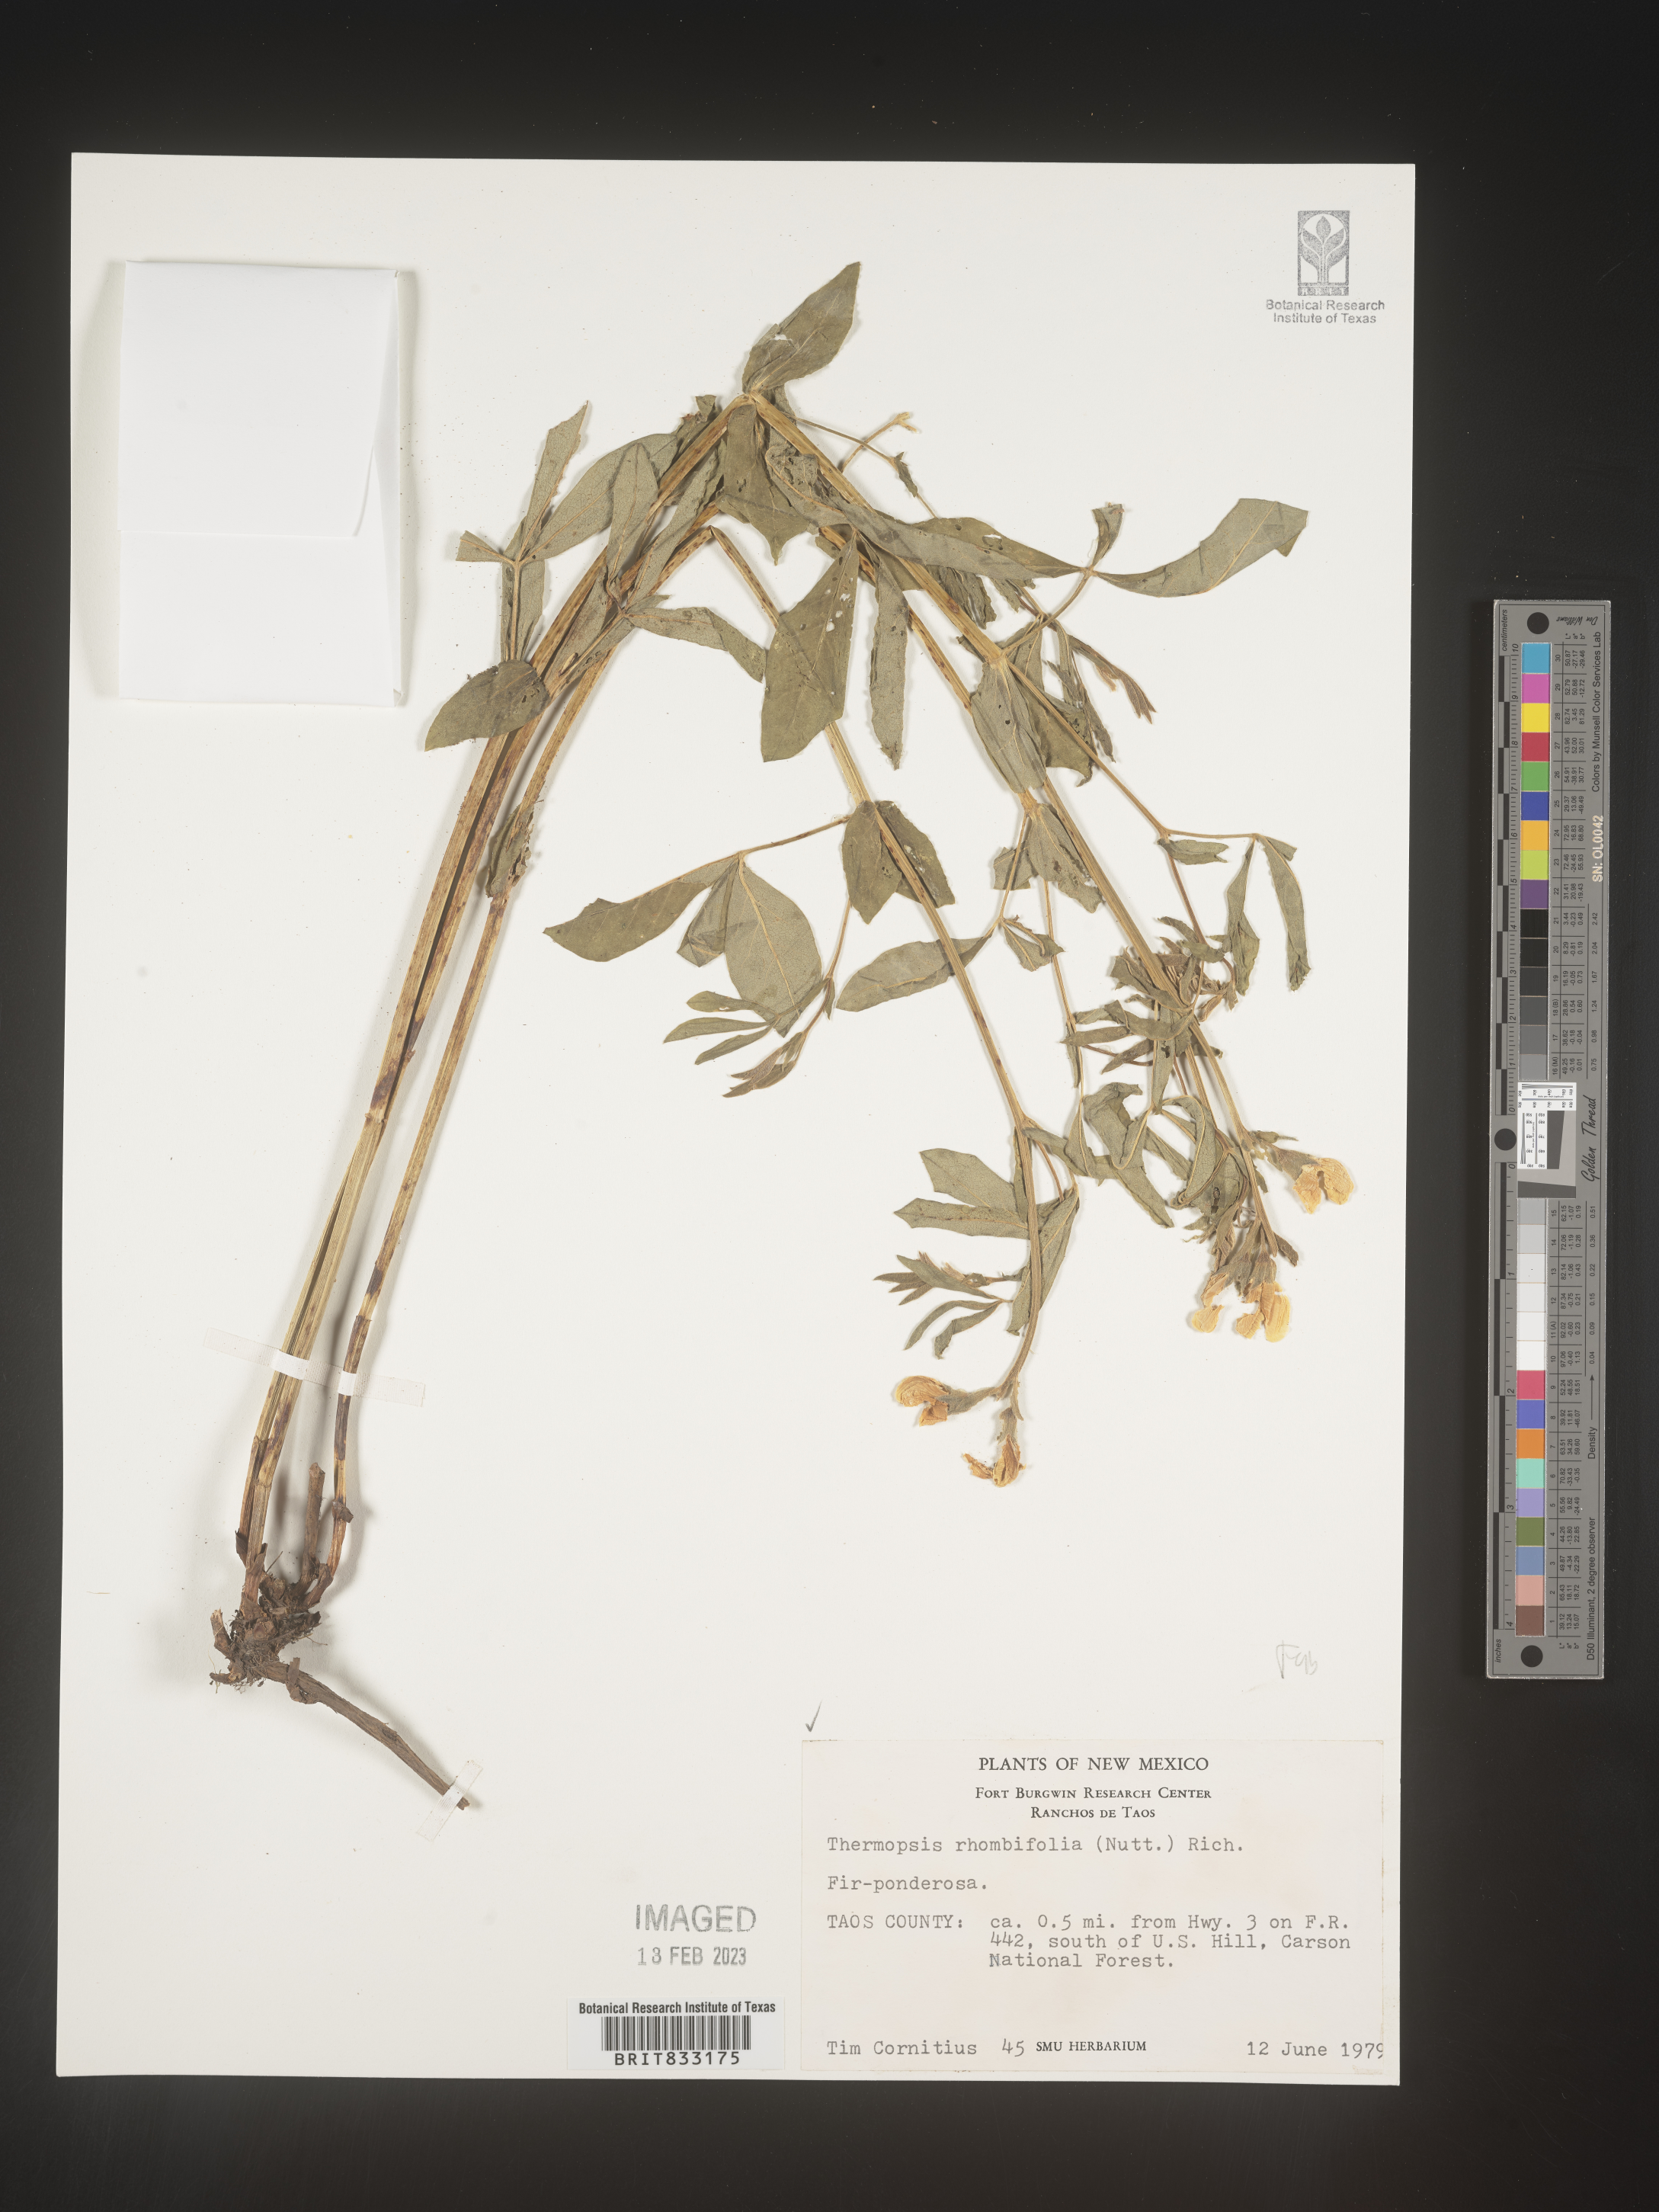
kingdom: Plantae
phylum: Tracheophyta
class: Magnoliopsida
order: Fabales
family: Fabaceae
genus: Thermopsis
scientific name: Thermopsis rhombifolia
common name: Circle-pod-pea
